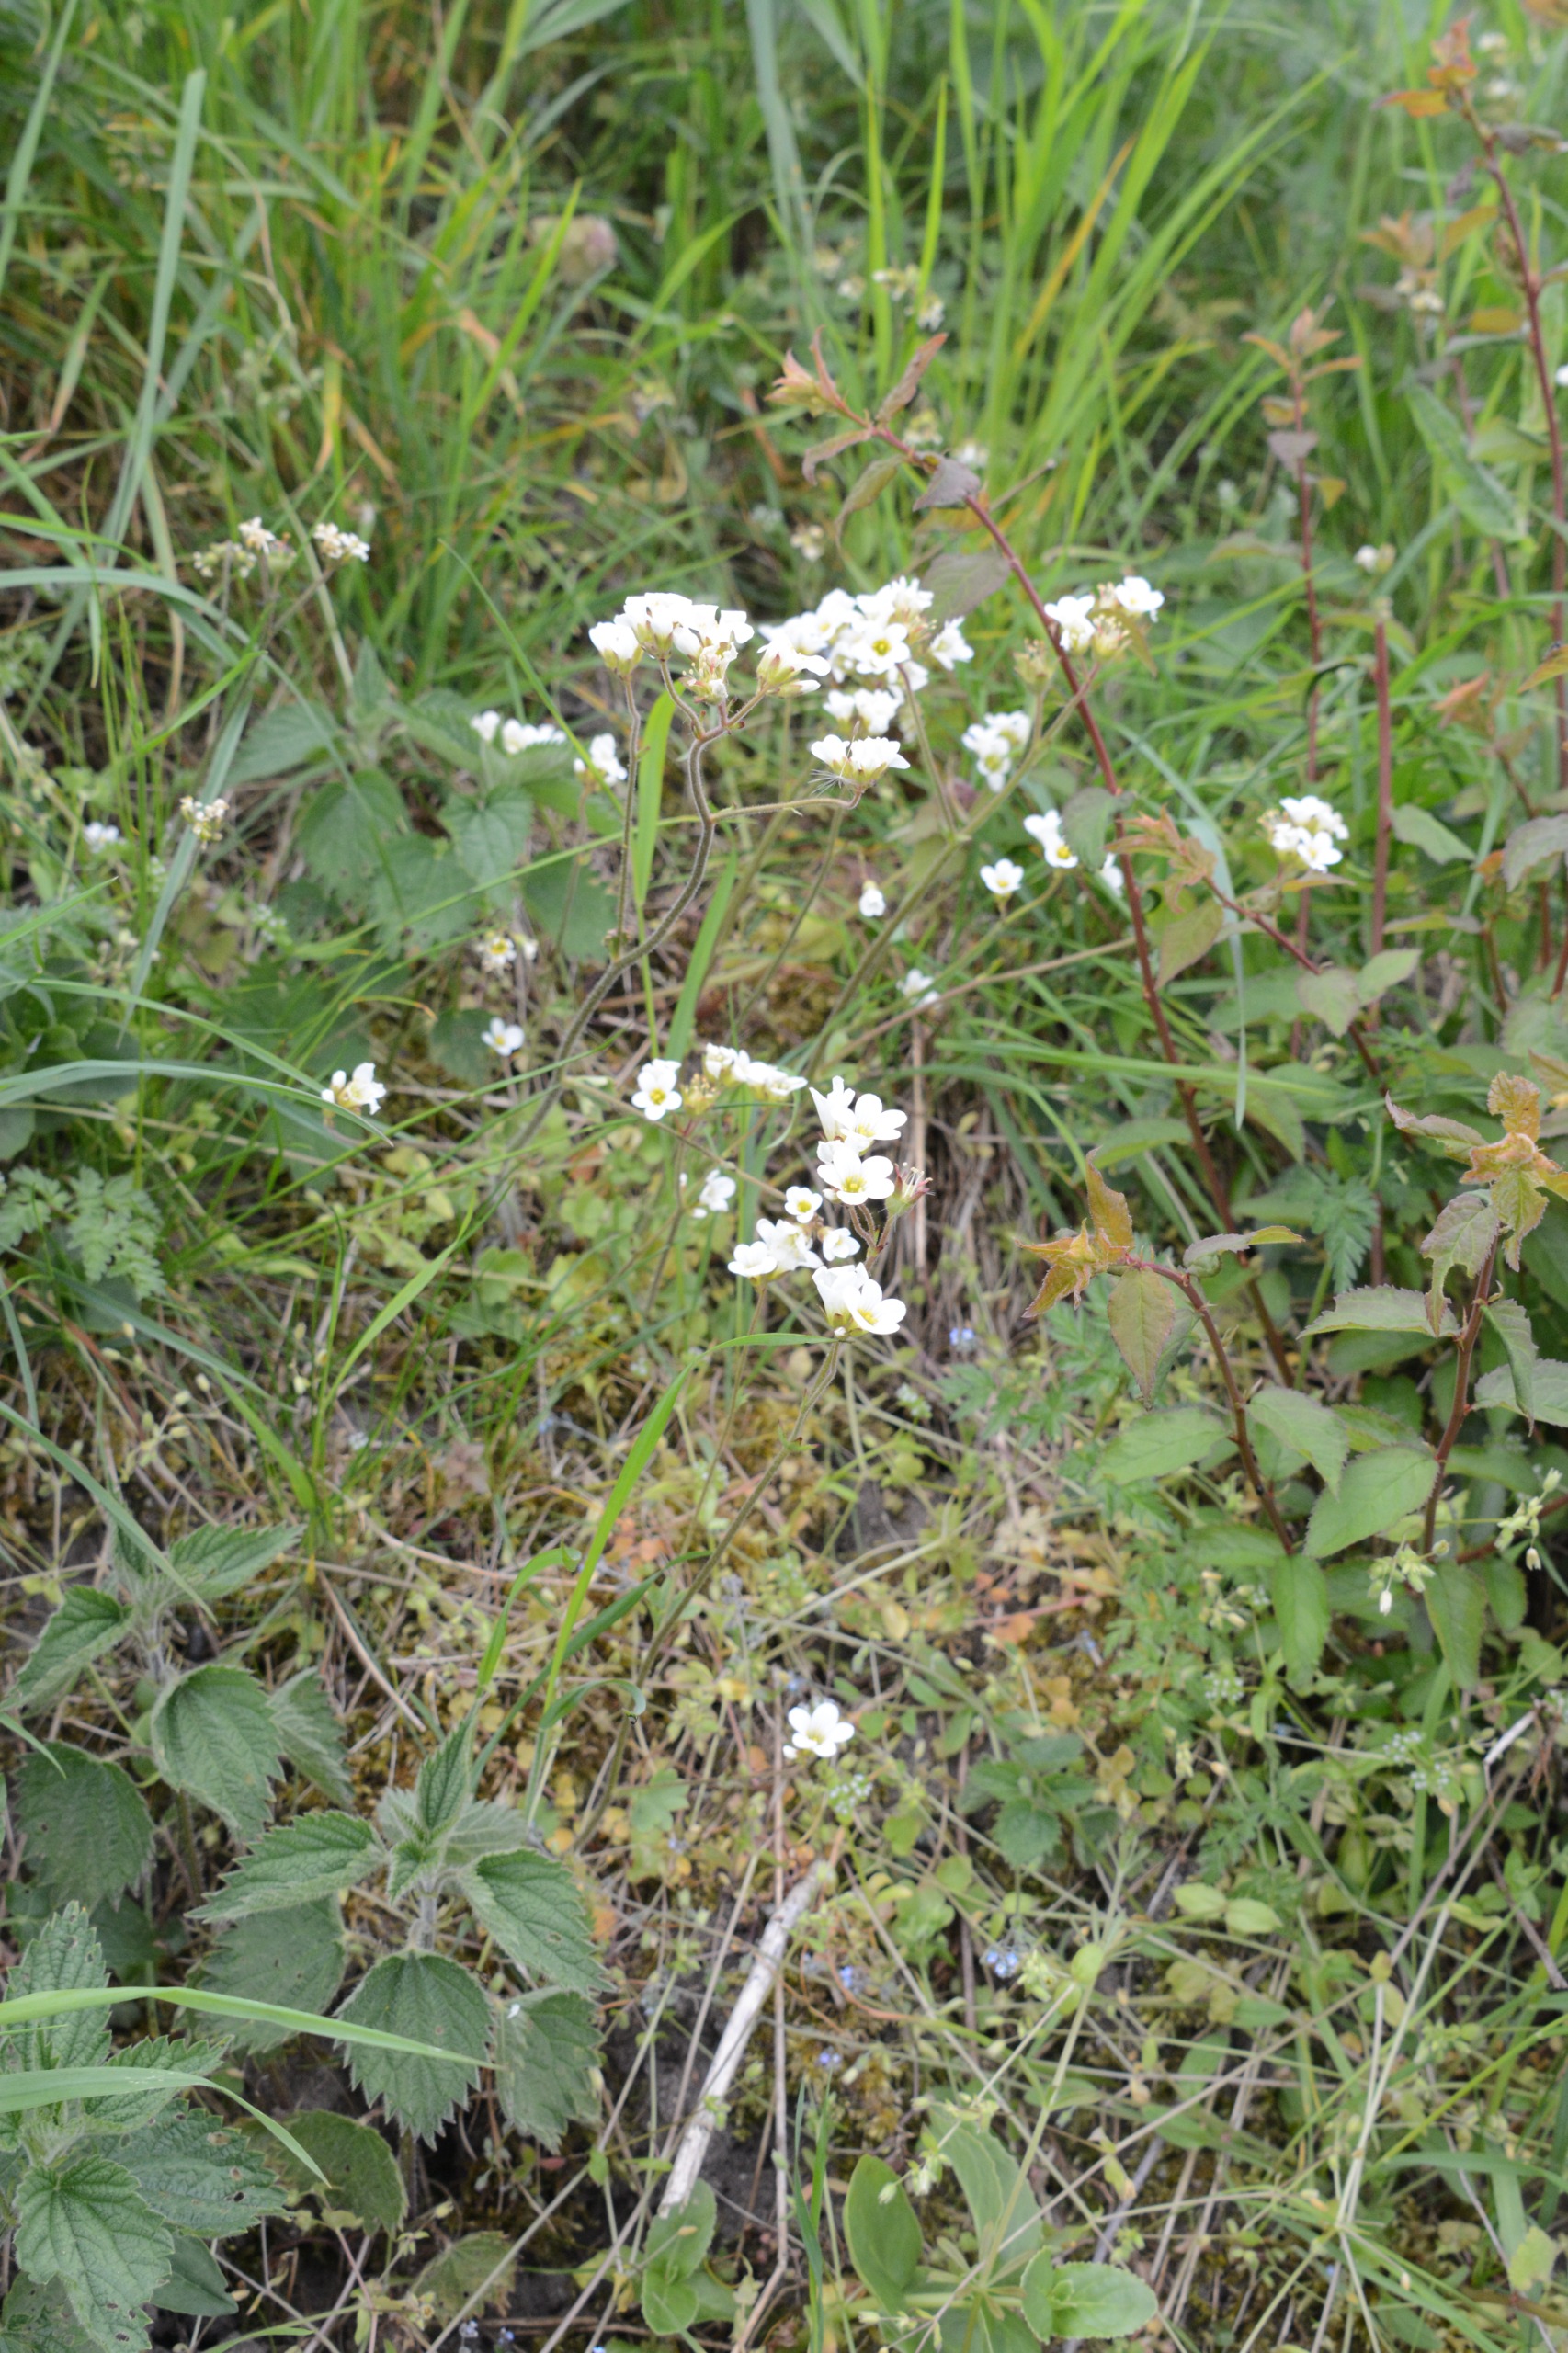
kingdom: Plantae
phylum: Tracheophyta
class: Magnoliopsida
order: Saxifragales
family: Saxifragaceae
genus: Saxifraga
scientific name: Saxifraga granulata
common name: Kornet stenbræk
